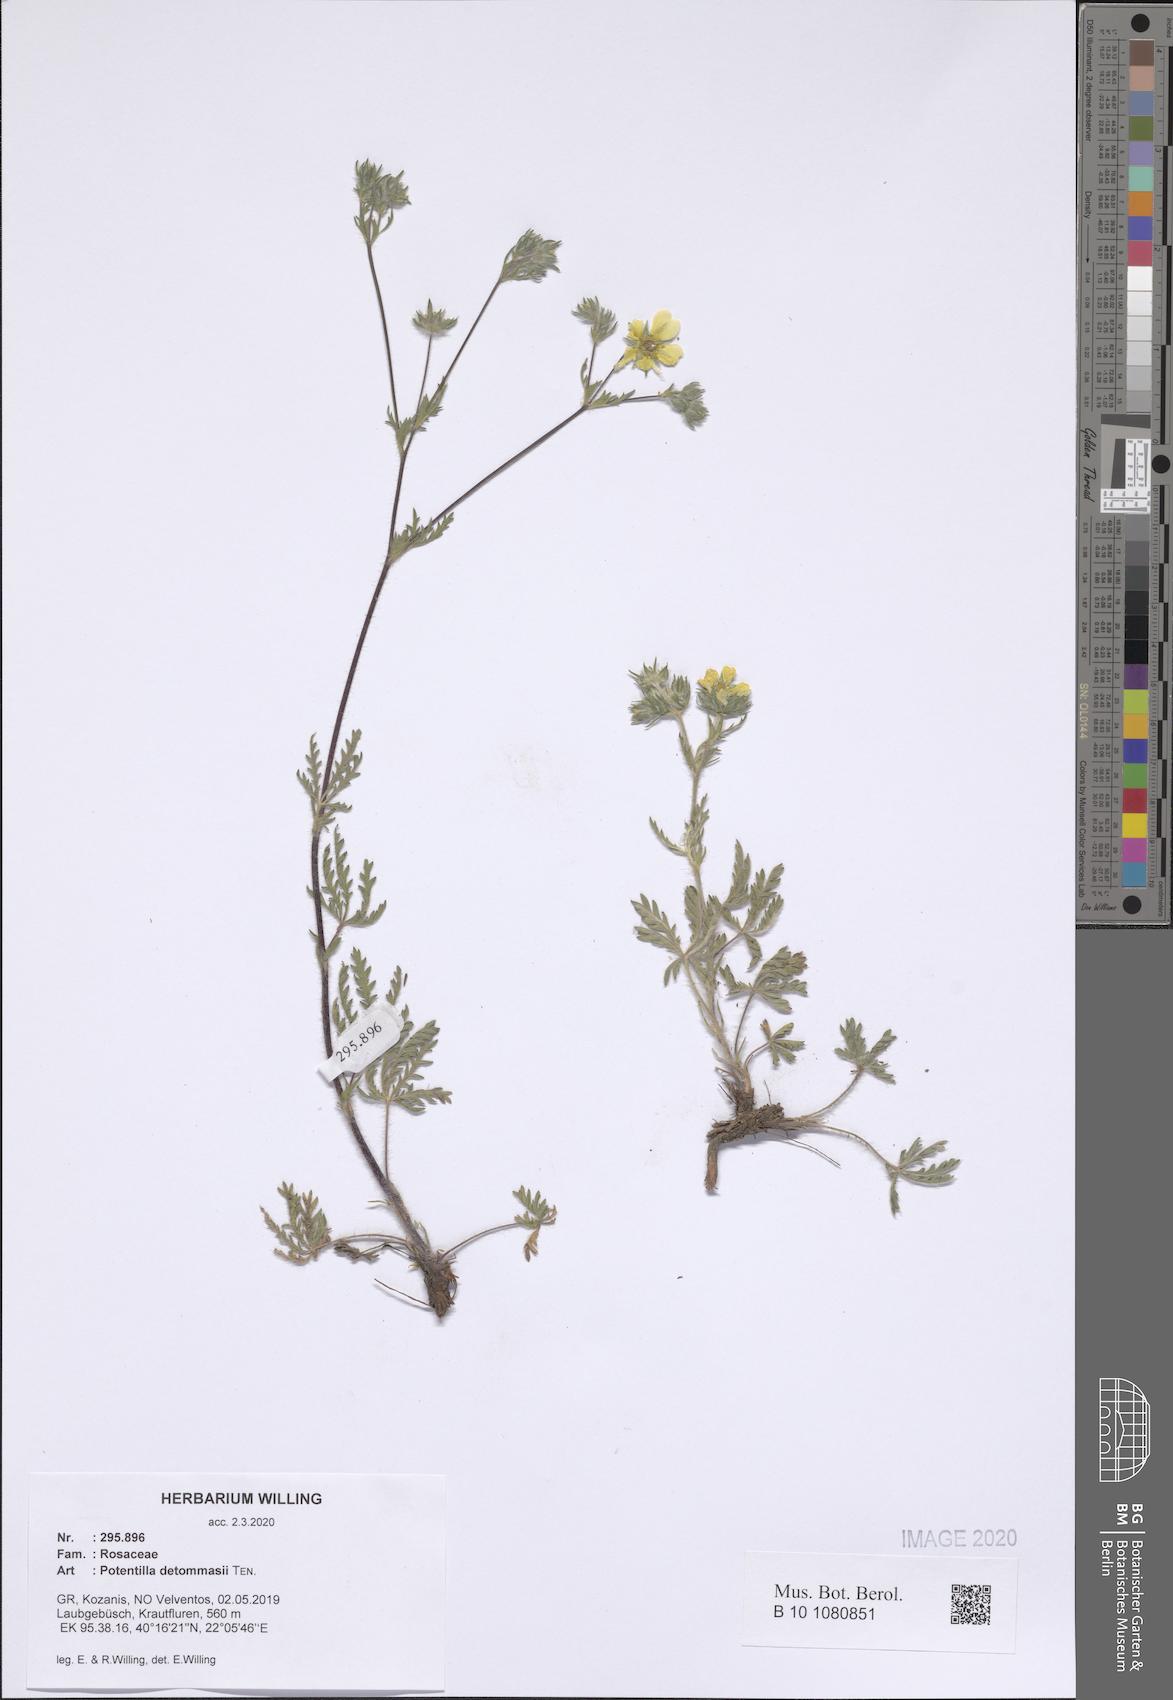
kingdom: Plantae
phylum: Tracheophyta
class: Magnoliopsida
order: Rosales
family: Rosaceae
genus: Potentilla
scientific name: Potentilla detommasii
